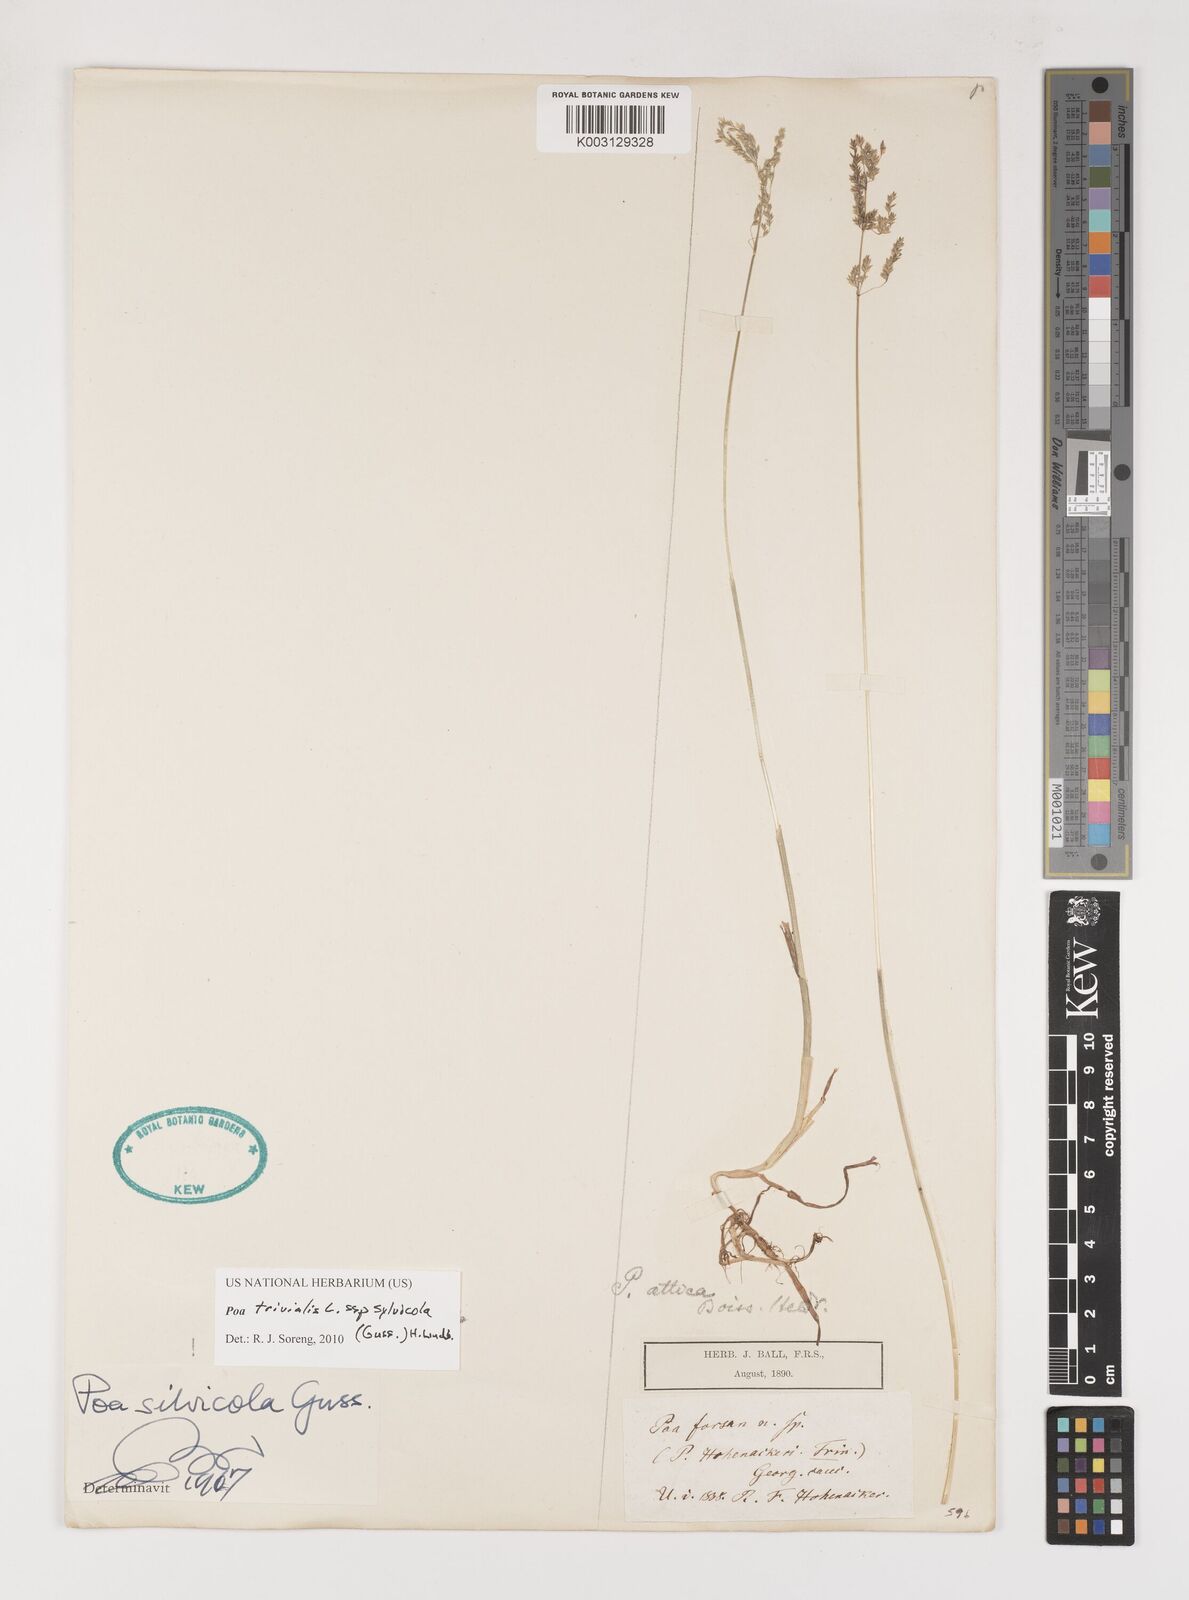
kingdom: Plantae
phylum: Tracheophyta
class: Liliopsida
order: Poales
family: Poaceae
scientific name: Poaceae
